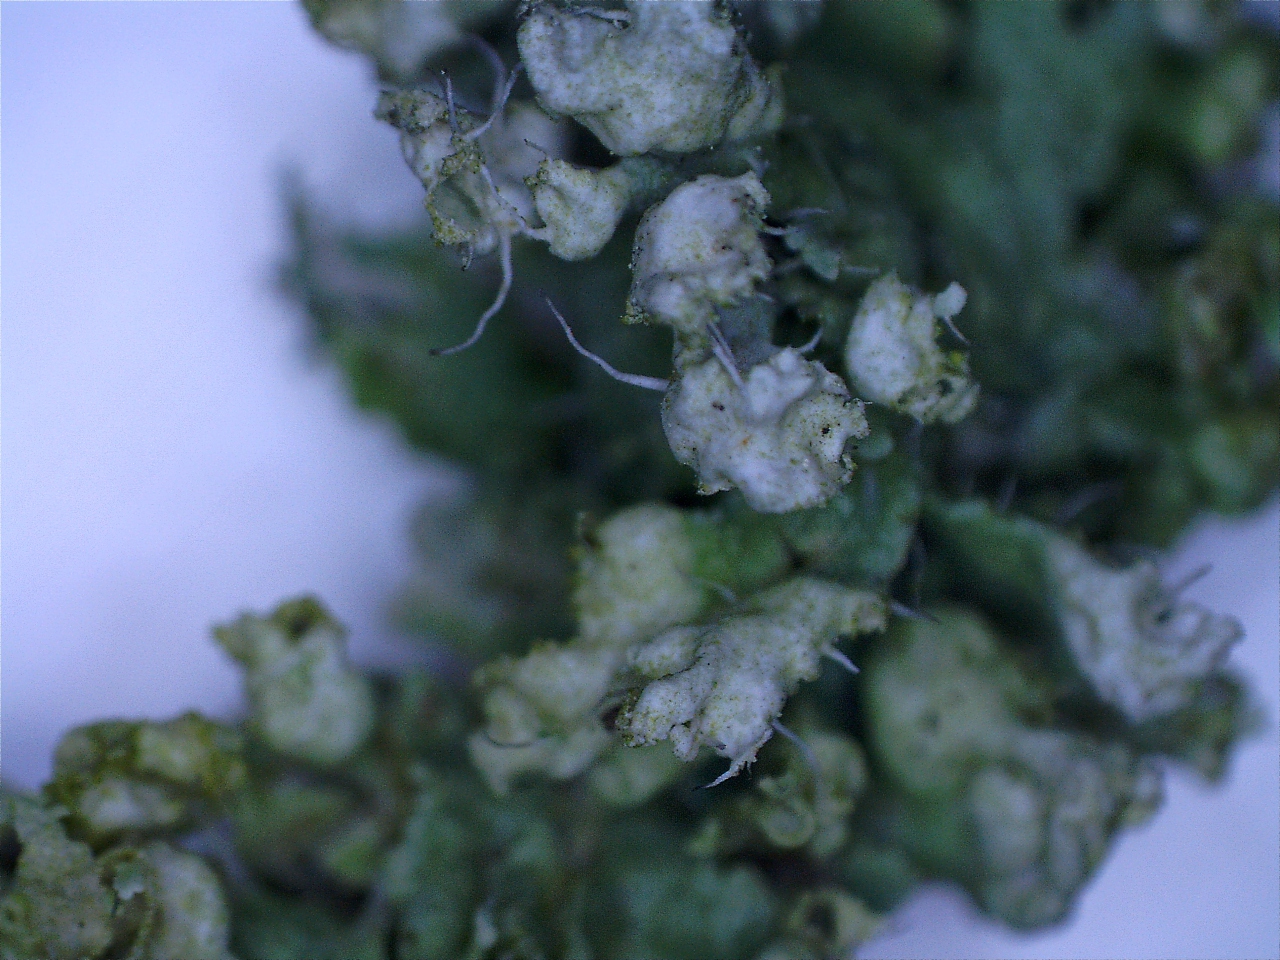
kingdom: Fungi
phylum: Ascomycota
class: Lecanoromycetes
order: Caliciales
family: Physciaceae
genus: Physcia
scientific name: Physcia adscendens
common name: hætte-rosetlav
